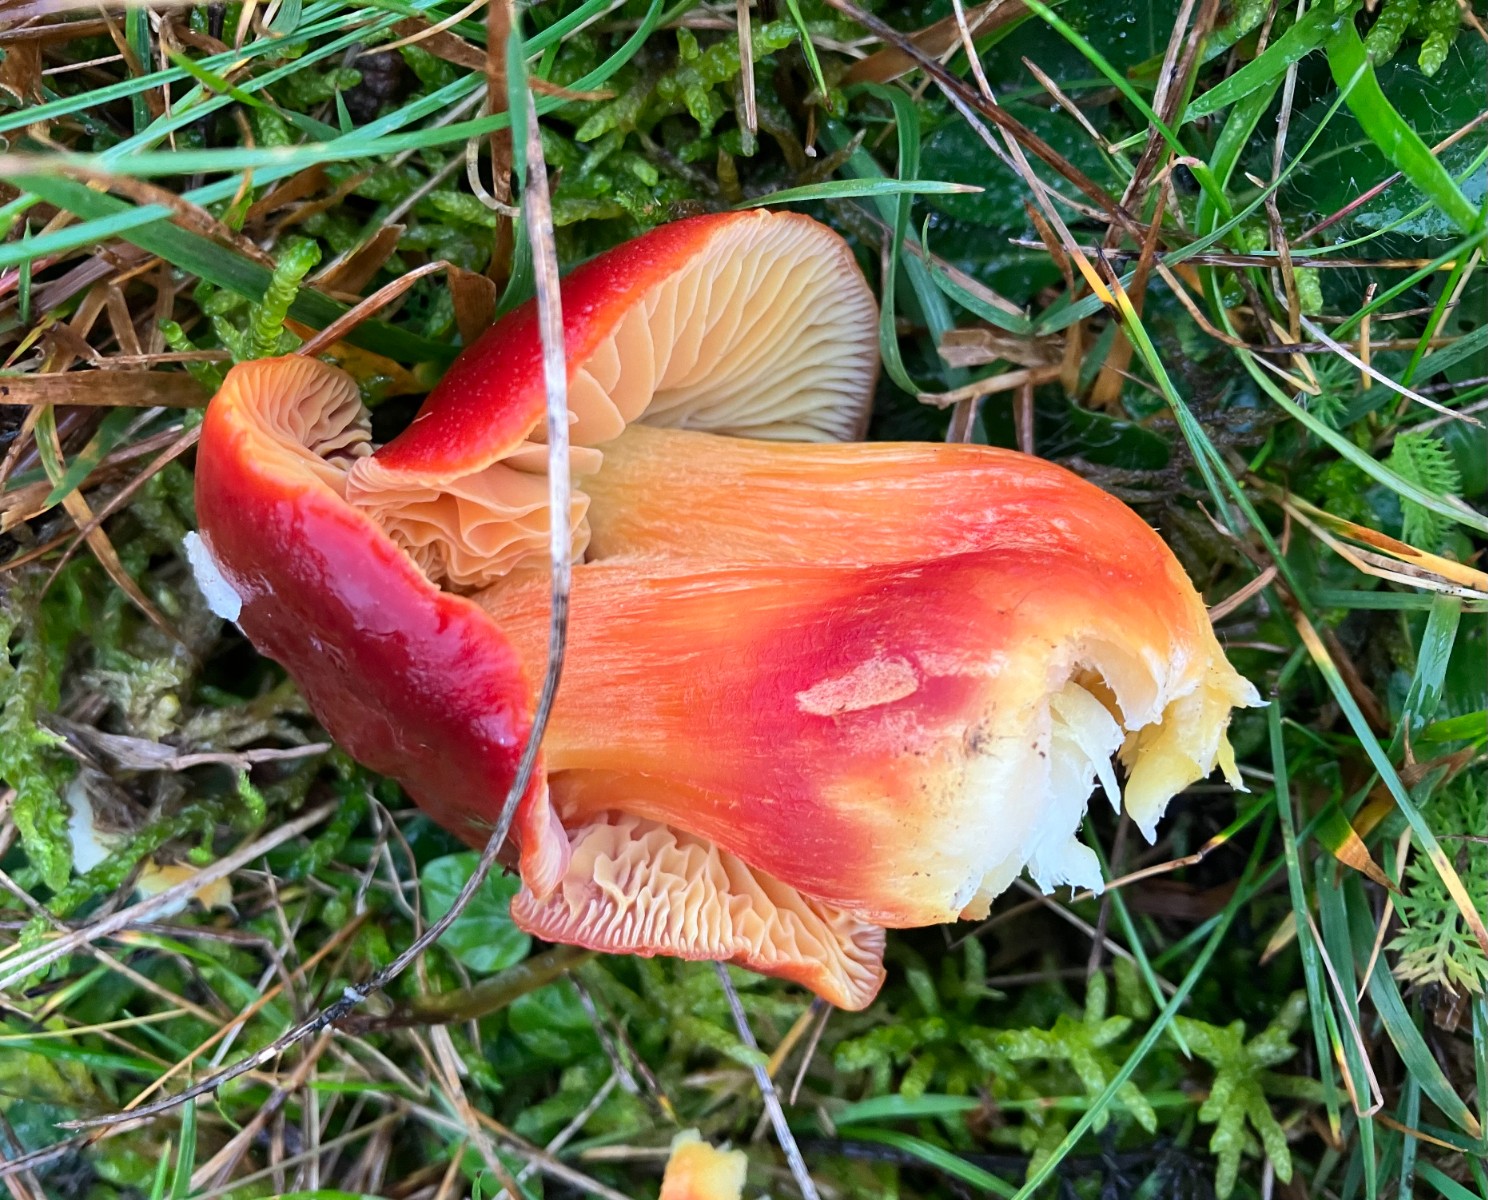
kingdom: Fungi
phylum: Basidiomycota
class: Agaricomycetes
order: Agaricales
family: Hygrophoraceae
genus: Hygrocybe
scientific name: Hygrocybe punicea
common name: skarlagen-vokshat
